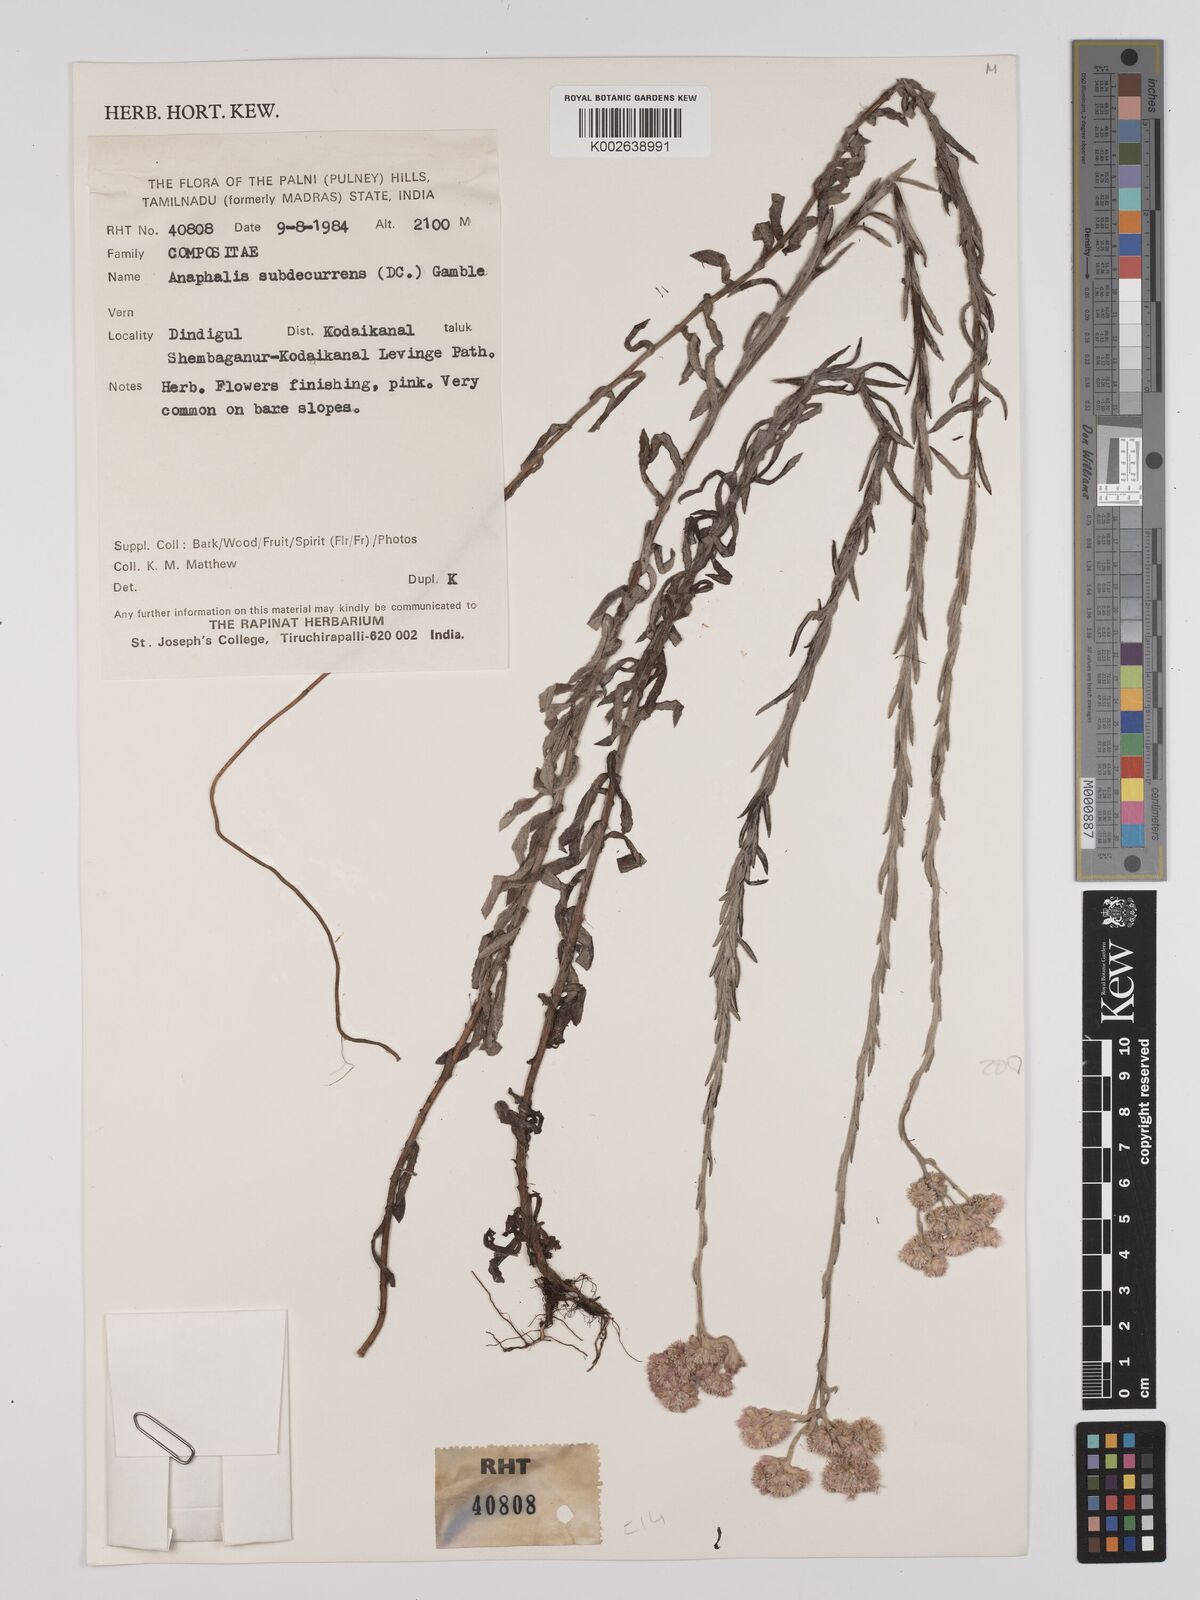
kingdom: Plantae
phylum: Tracheophyta
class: Magnoliopsida
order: Asterales
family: Asteraceae
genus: Anaphalis
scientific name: Anaphalis subdecurrens
